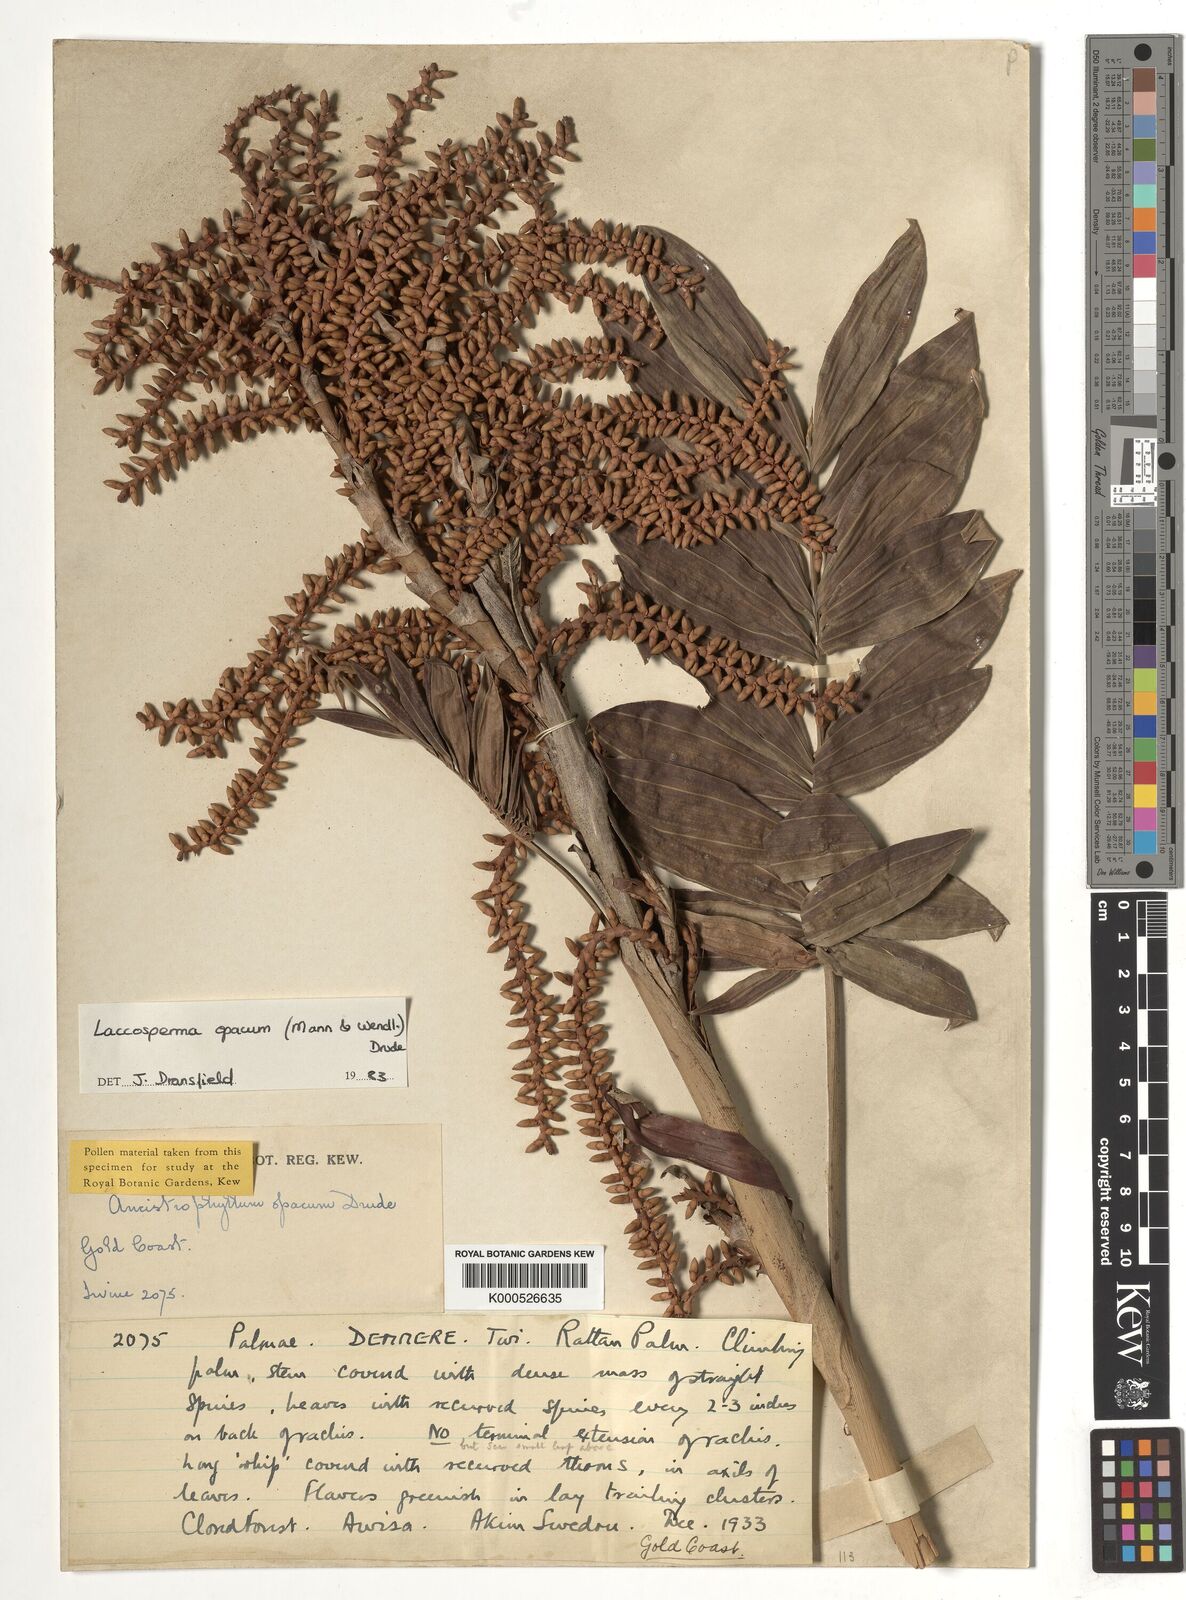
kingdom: Plantae
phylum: Tracheophyta
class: Liliopsida
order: Arecales
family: Arecaceae
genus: Laccosperma
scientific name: Laccosperma opacum
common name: Rattan
